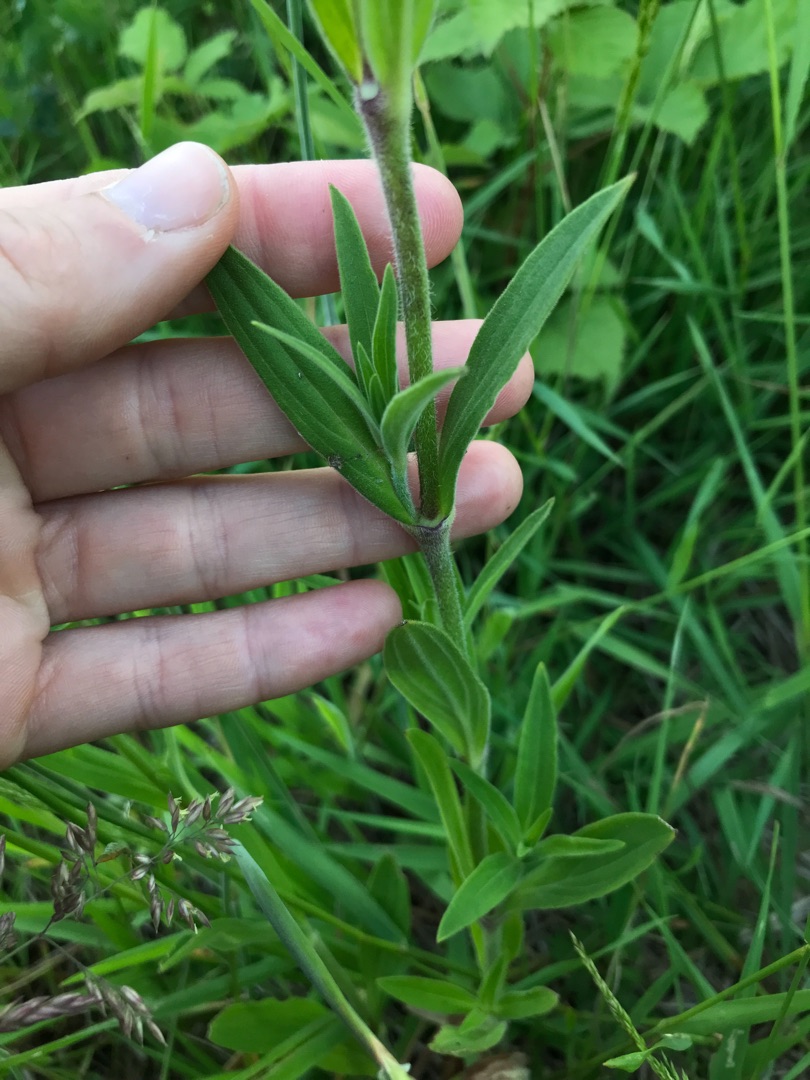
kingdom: Plantae
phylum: Tracheophyta
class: Magnoliopsida
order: Caryophyllales
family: Caryophyllaceae
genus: Silene
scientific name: Silene latifolia
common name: Aftenpragtstjerne
